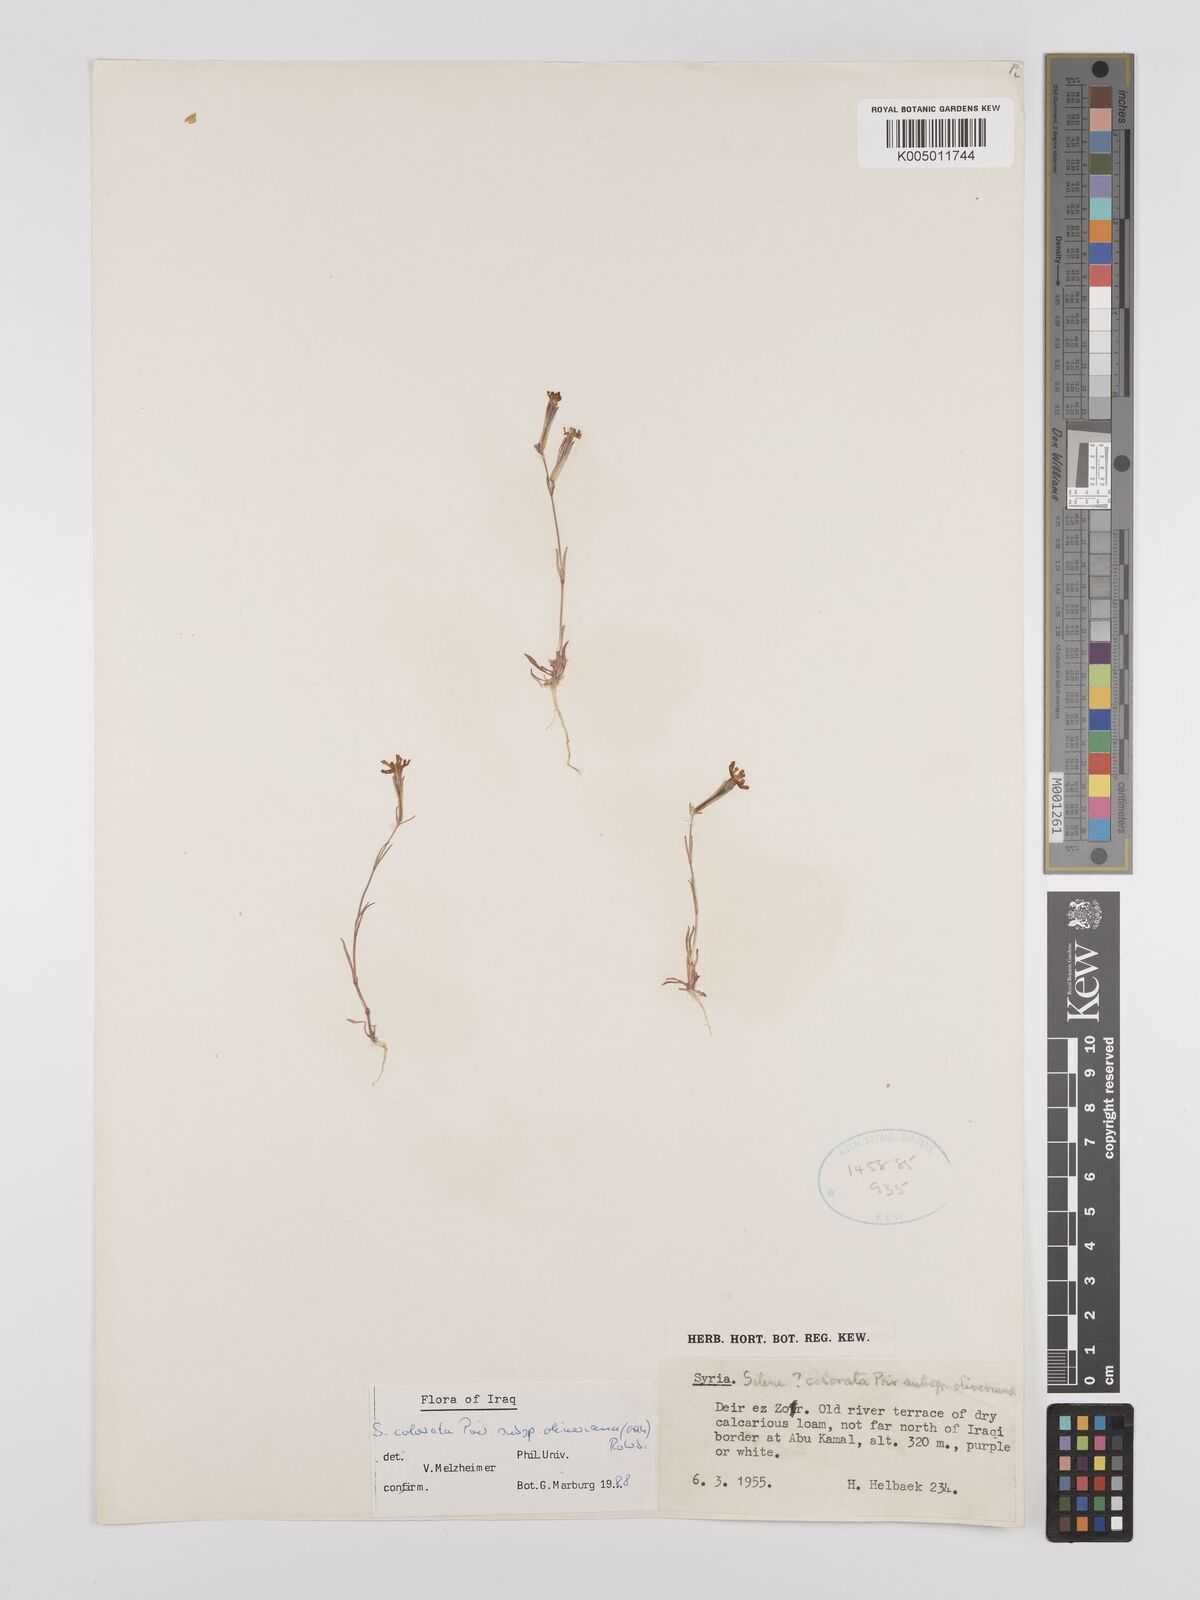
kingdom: Plantae
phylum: Tracheophyta
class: Magnoliopsida
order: Caryophyllales
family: Caryophyllaceae
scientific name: Caryophyllaceae
